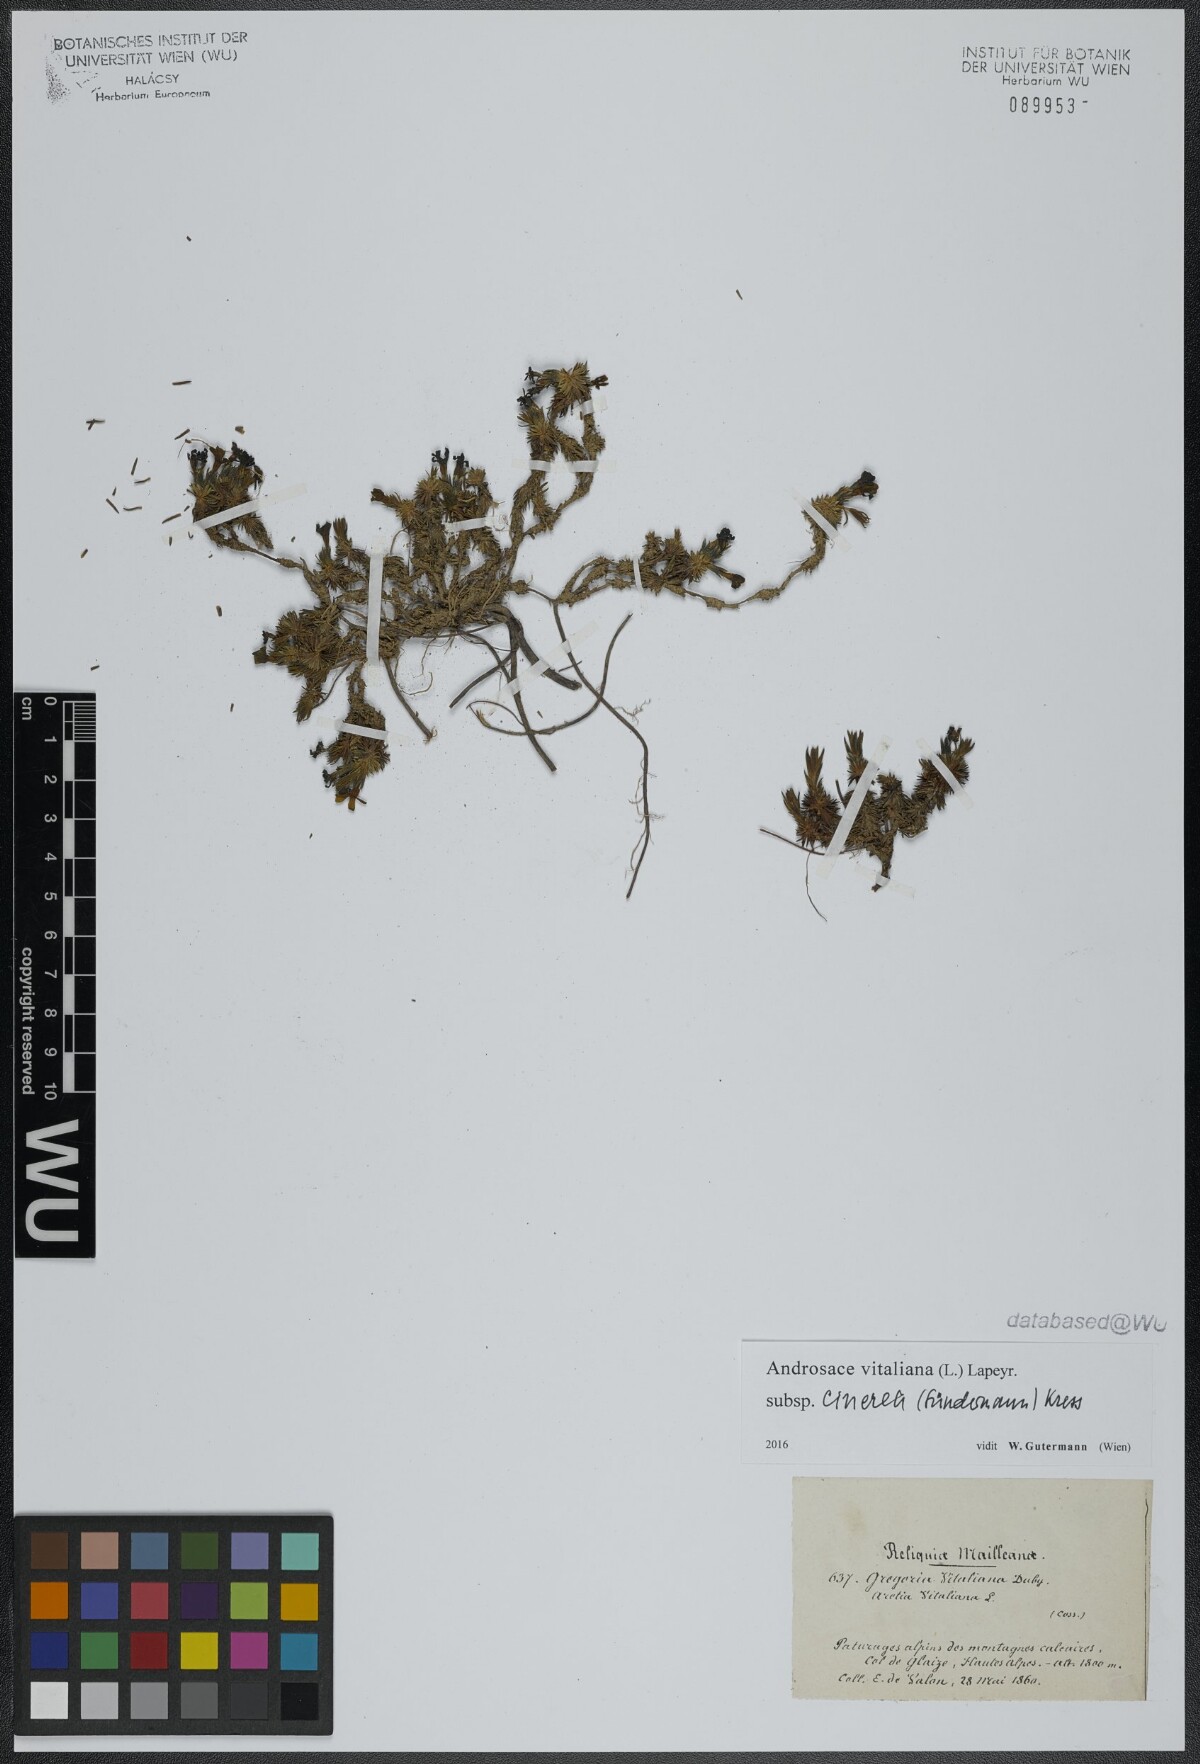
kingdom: Plantae
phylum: Tracheophyta
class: Magnoliopsida
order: Ericales
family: Primulaceae
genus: Androsace
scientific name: Androsace vitaliana
